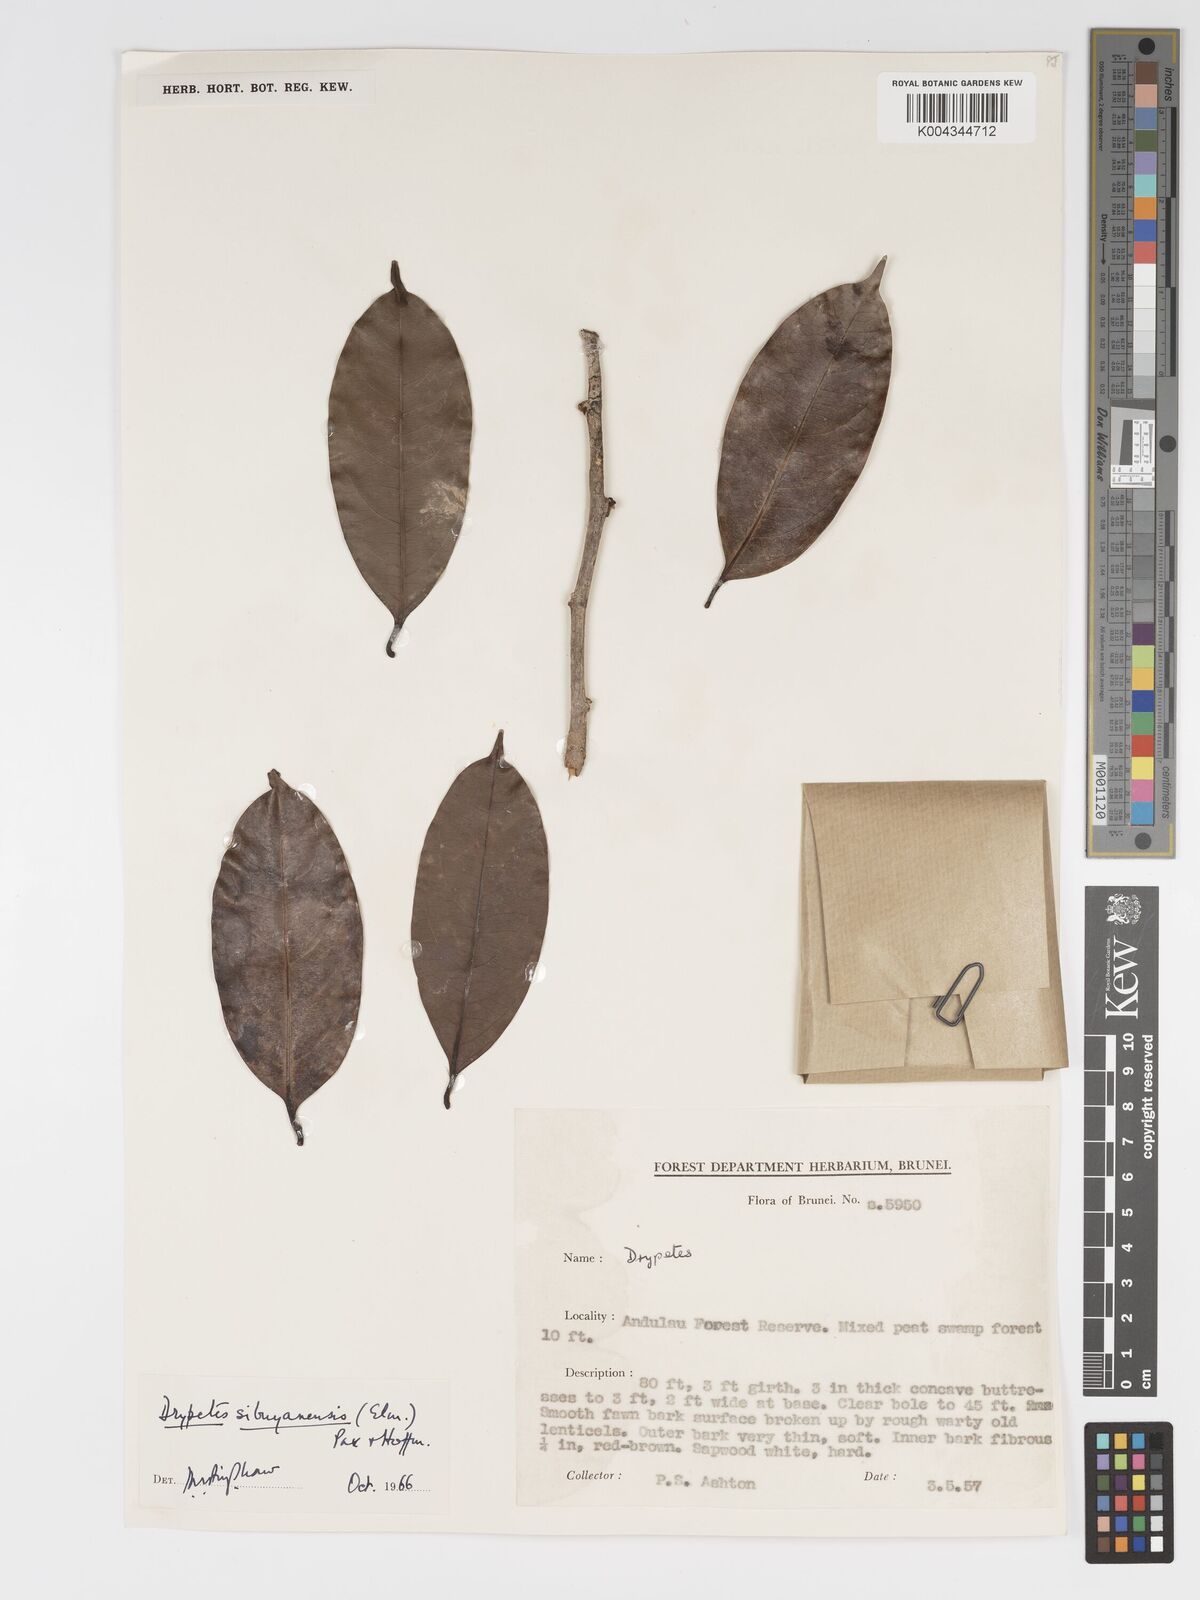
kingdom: Plantae
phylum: Tracheophyta
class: Magnoliopsida
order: Malpighiales
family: Putranjivaceae
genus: Drypetes
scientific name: Drypetes sibuyanensis
